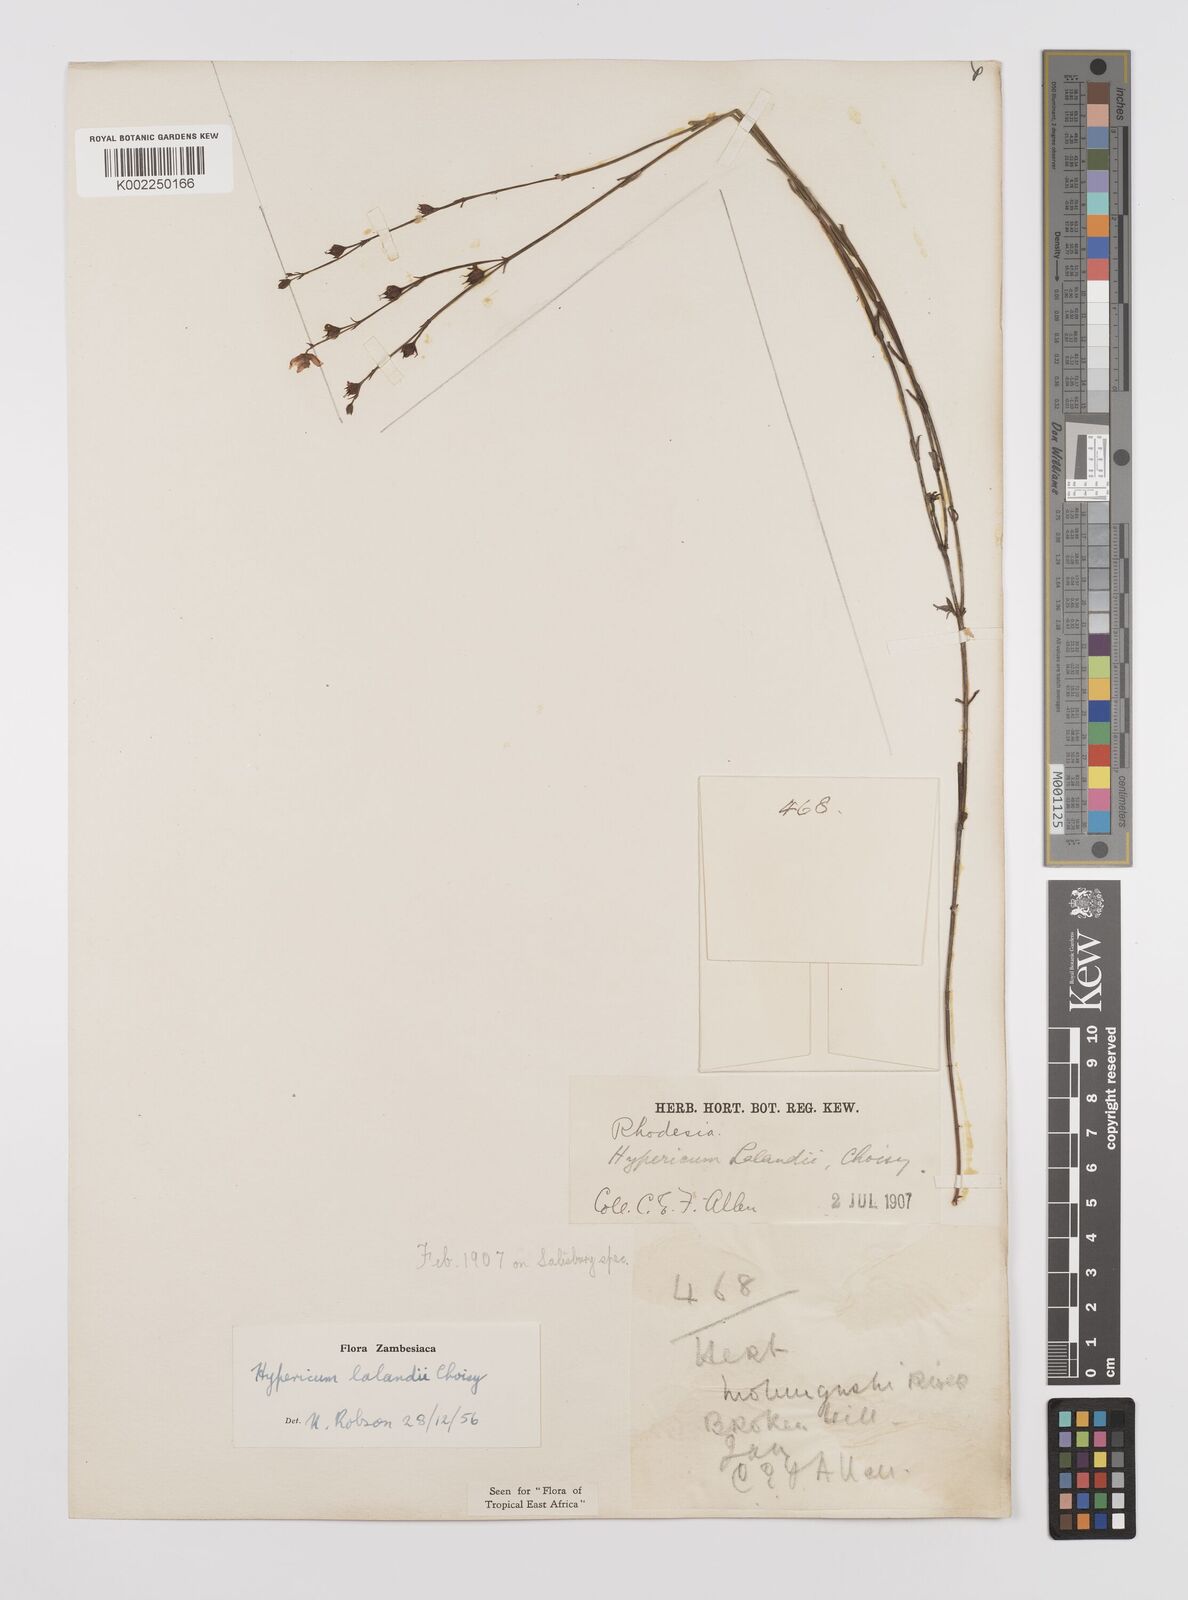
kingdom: Plantae
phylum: Tracheophyta
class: Magnoliopsida
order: Malpighiales
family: Hypericaceae
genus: Hypericum
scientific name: Hypericum lalandii
